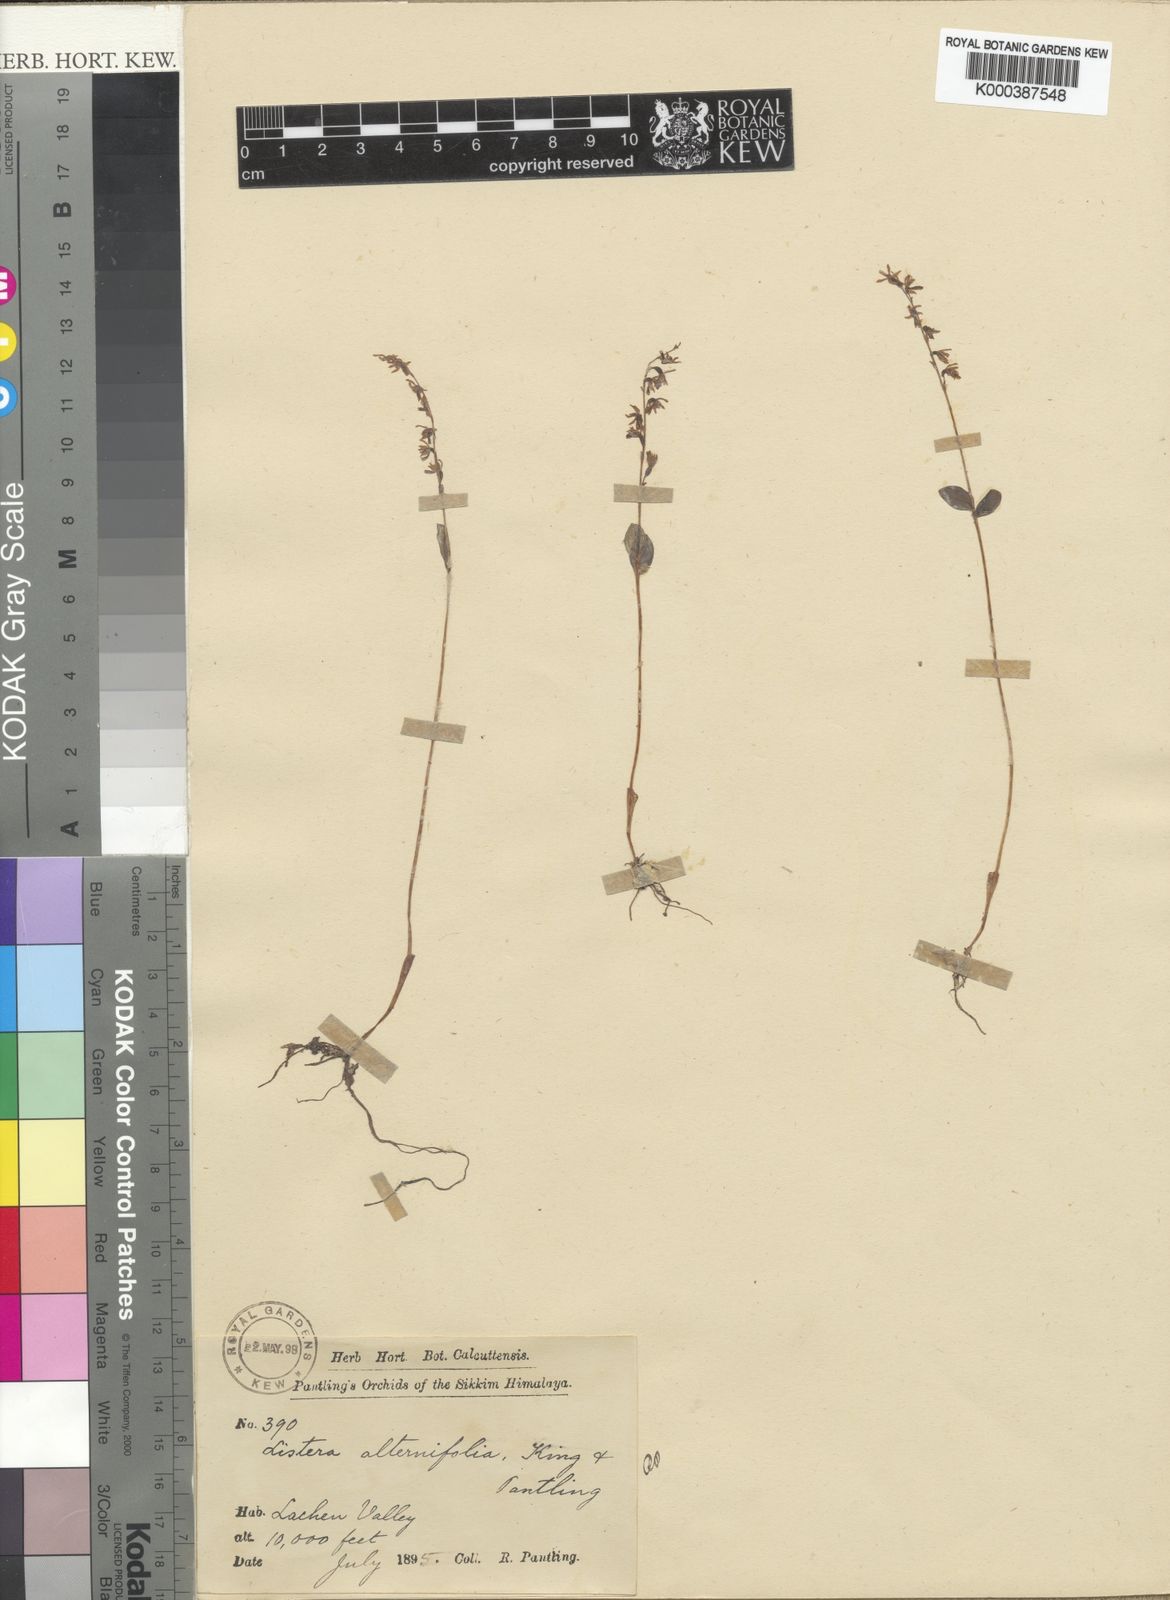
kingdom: Plantae
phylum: Tracheophyta
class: Liliopsida
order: Asparagales
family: Orchidaceae
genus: Neottia
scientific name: Neottia alternifolia
